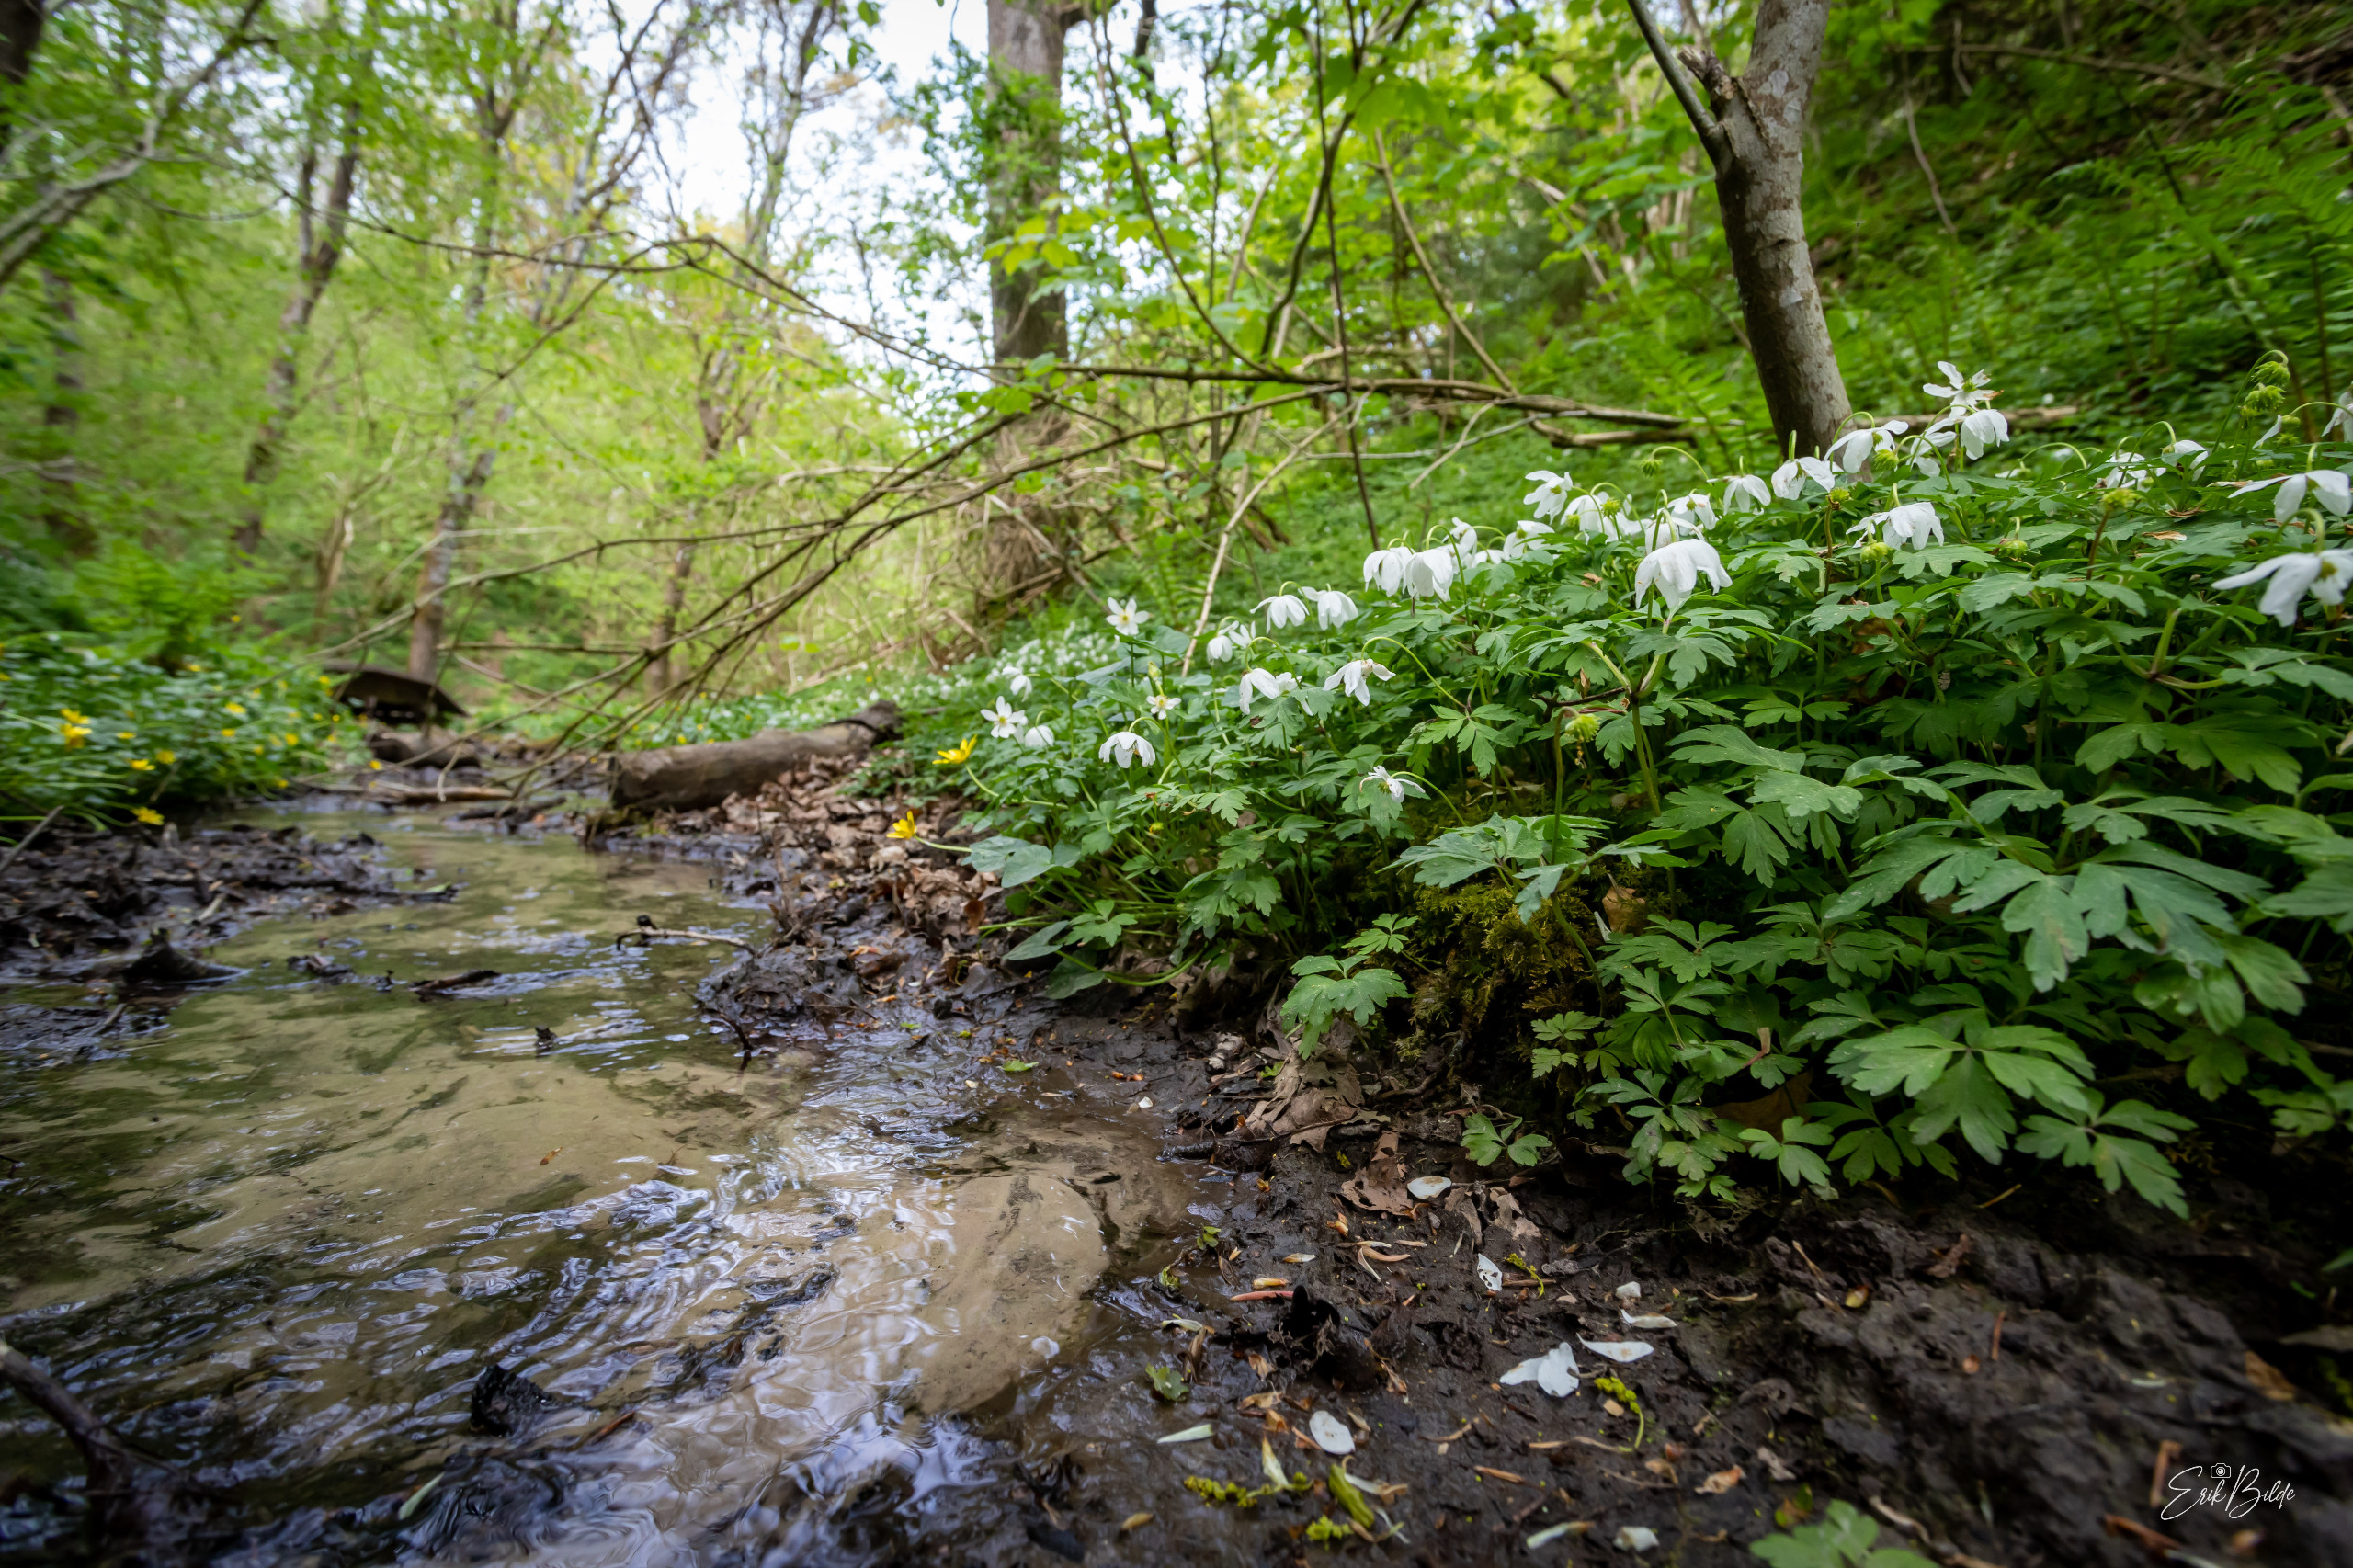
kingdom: Plantae
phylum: Tracheophyta
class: Magnoliopsida
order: Ranunculales
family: Ranunculaceae
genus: Anemone
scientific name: Anemone nemorosa
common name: Hvid anemone
